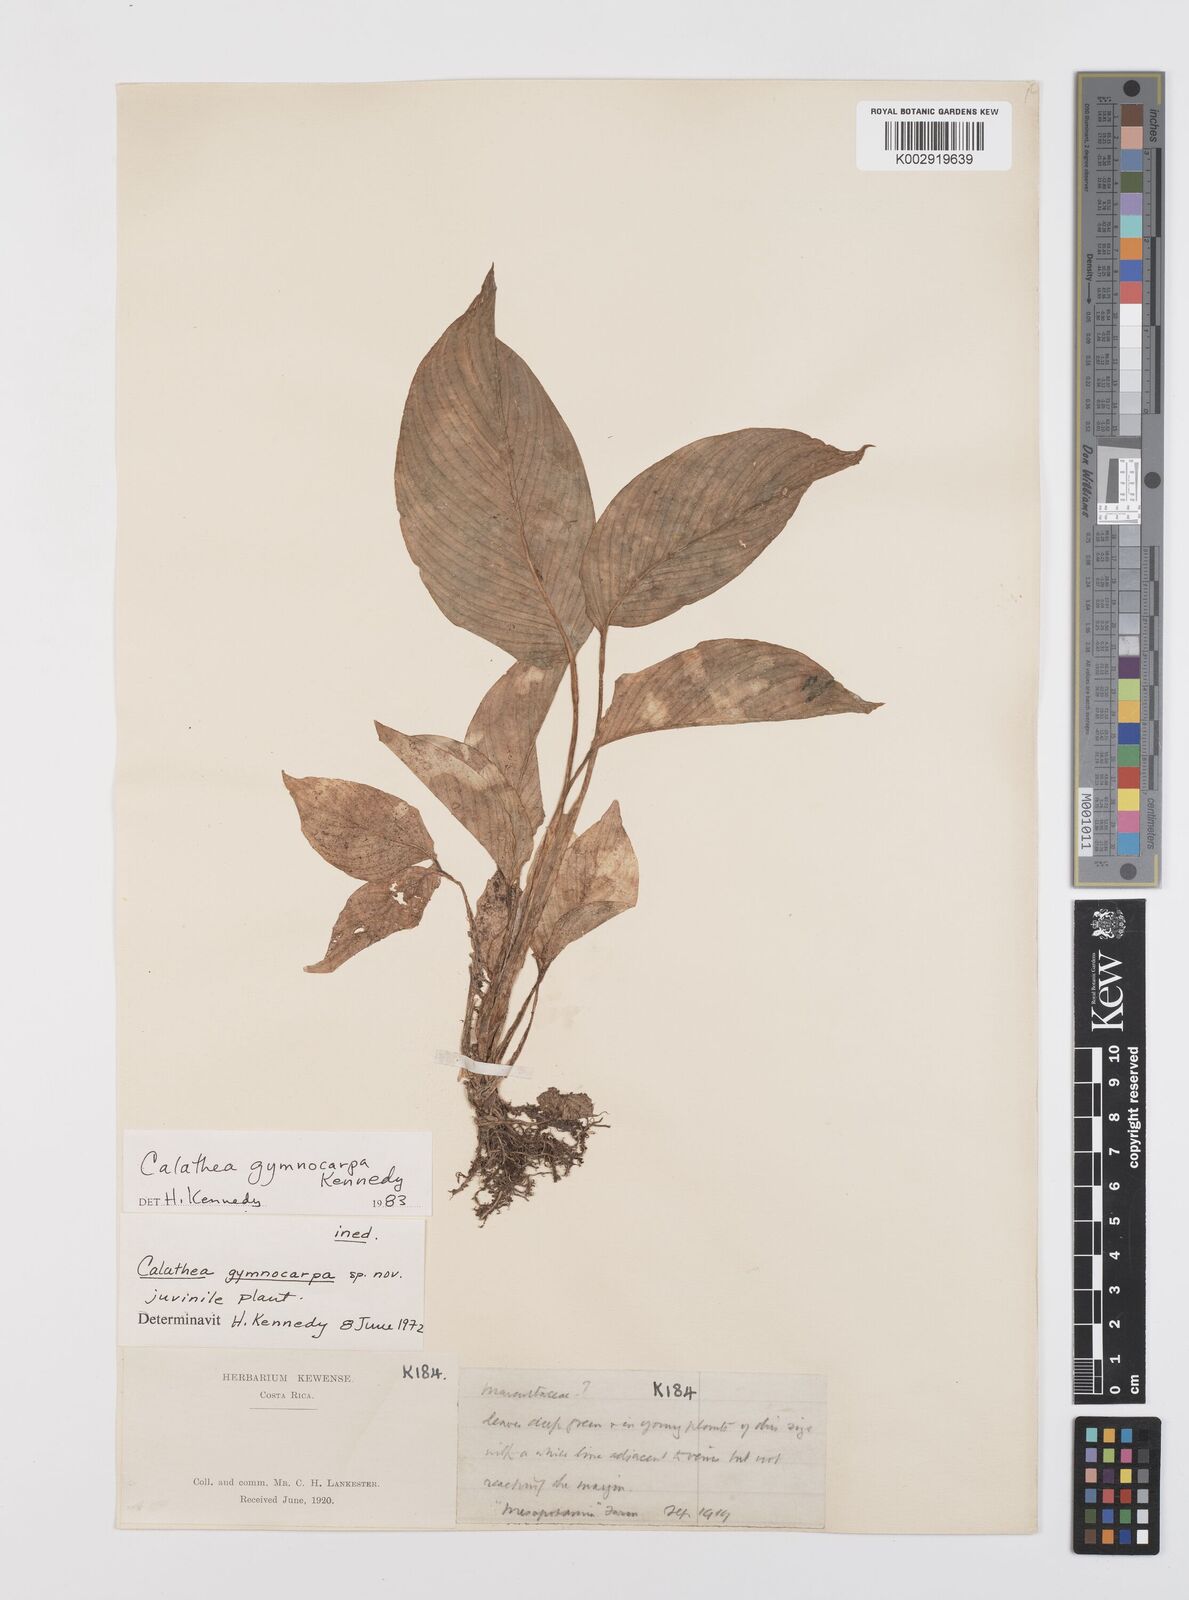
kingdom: Plantae
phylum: Tracheophyta
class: Liliopsida
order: Zingiberales
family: Marantaceae
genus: Goeppertia
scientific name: Goeppertia gymnocarpa
